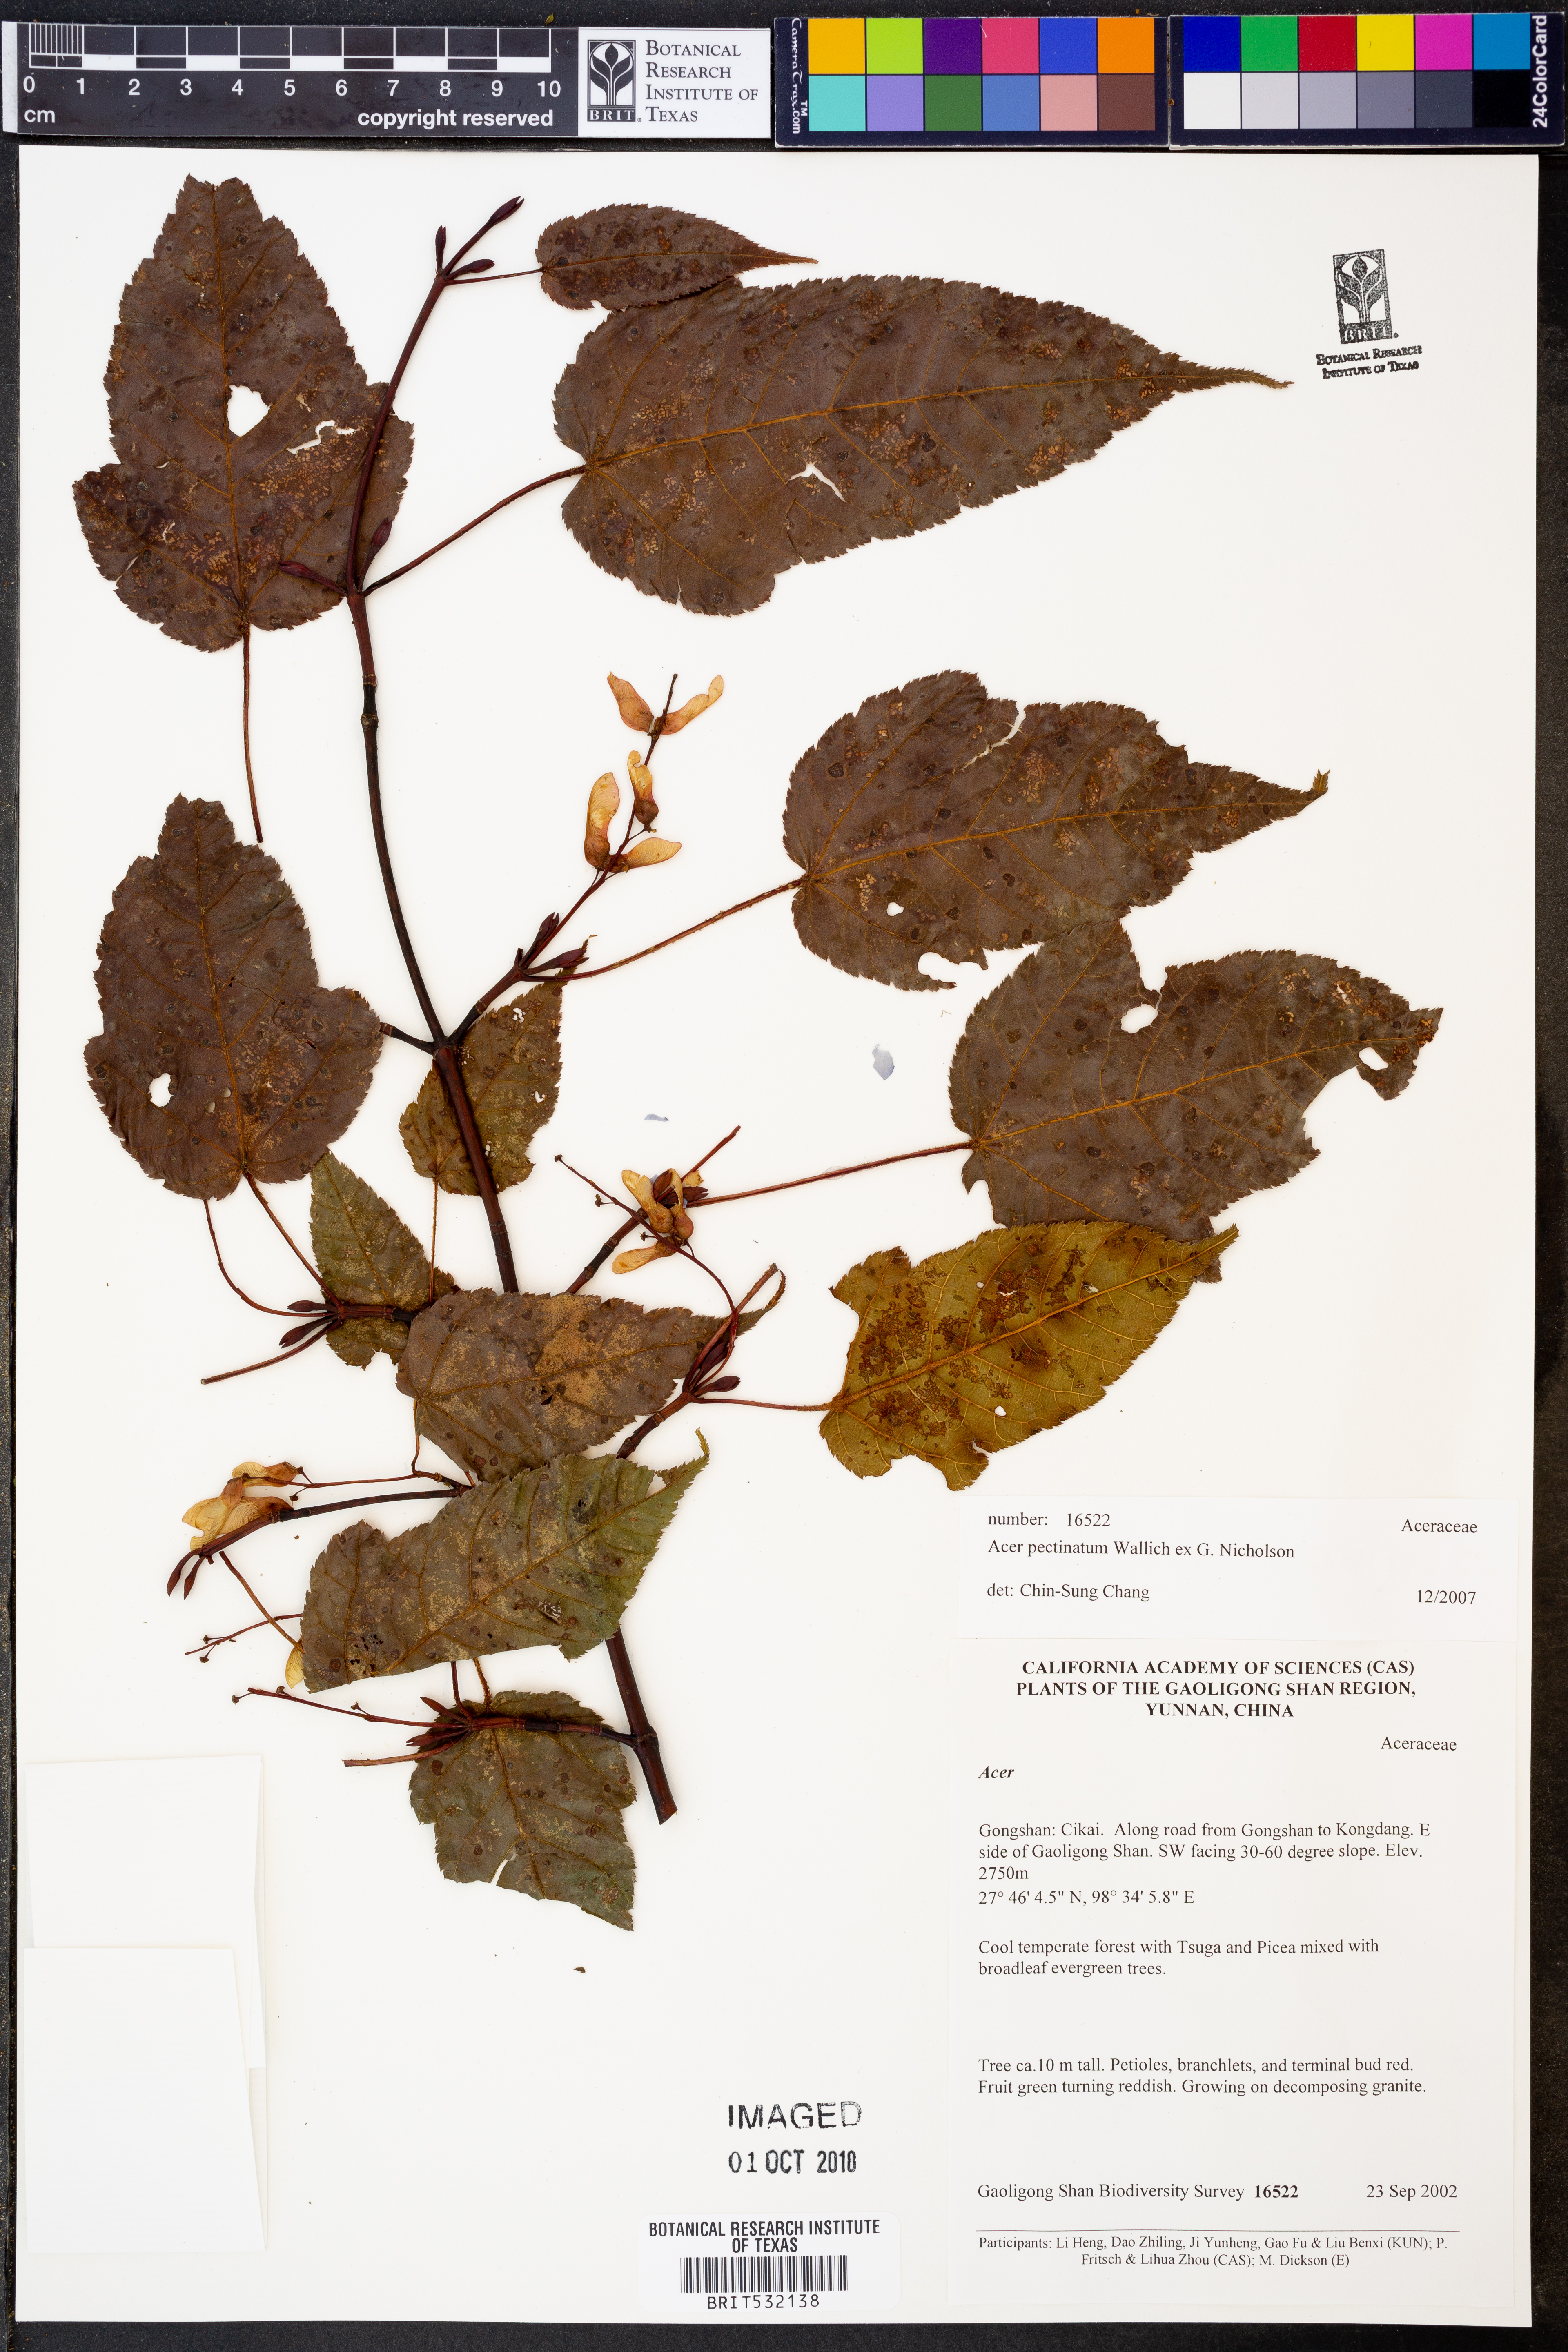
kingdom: Plantae
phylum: Tracheophyta
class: Magnoliopsida
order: Sapindales
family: Sapindaceae
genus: Acer
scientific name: Acer pectinatum
